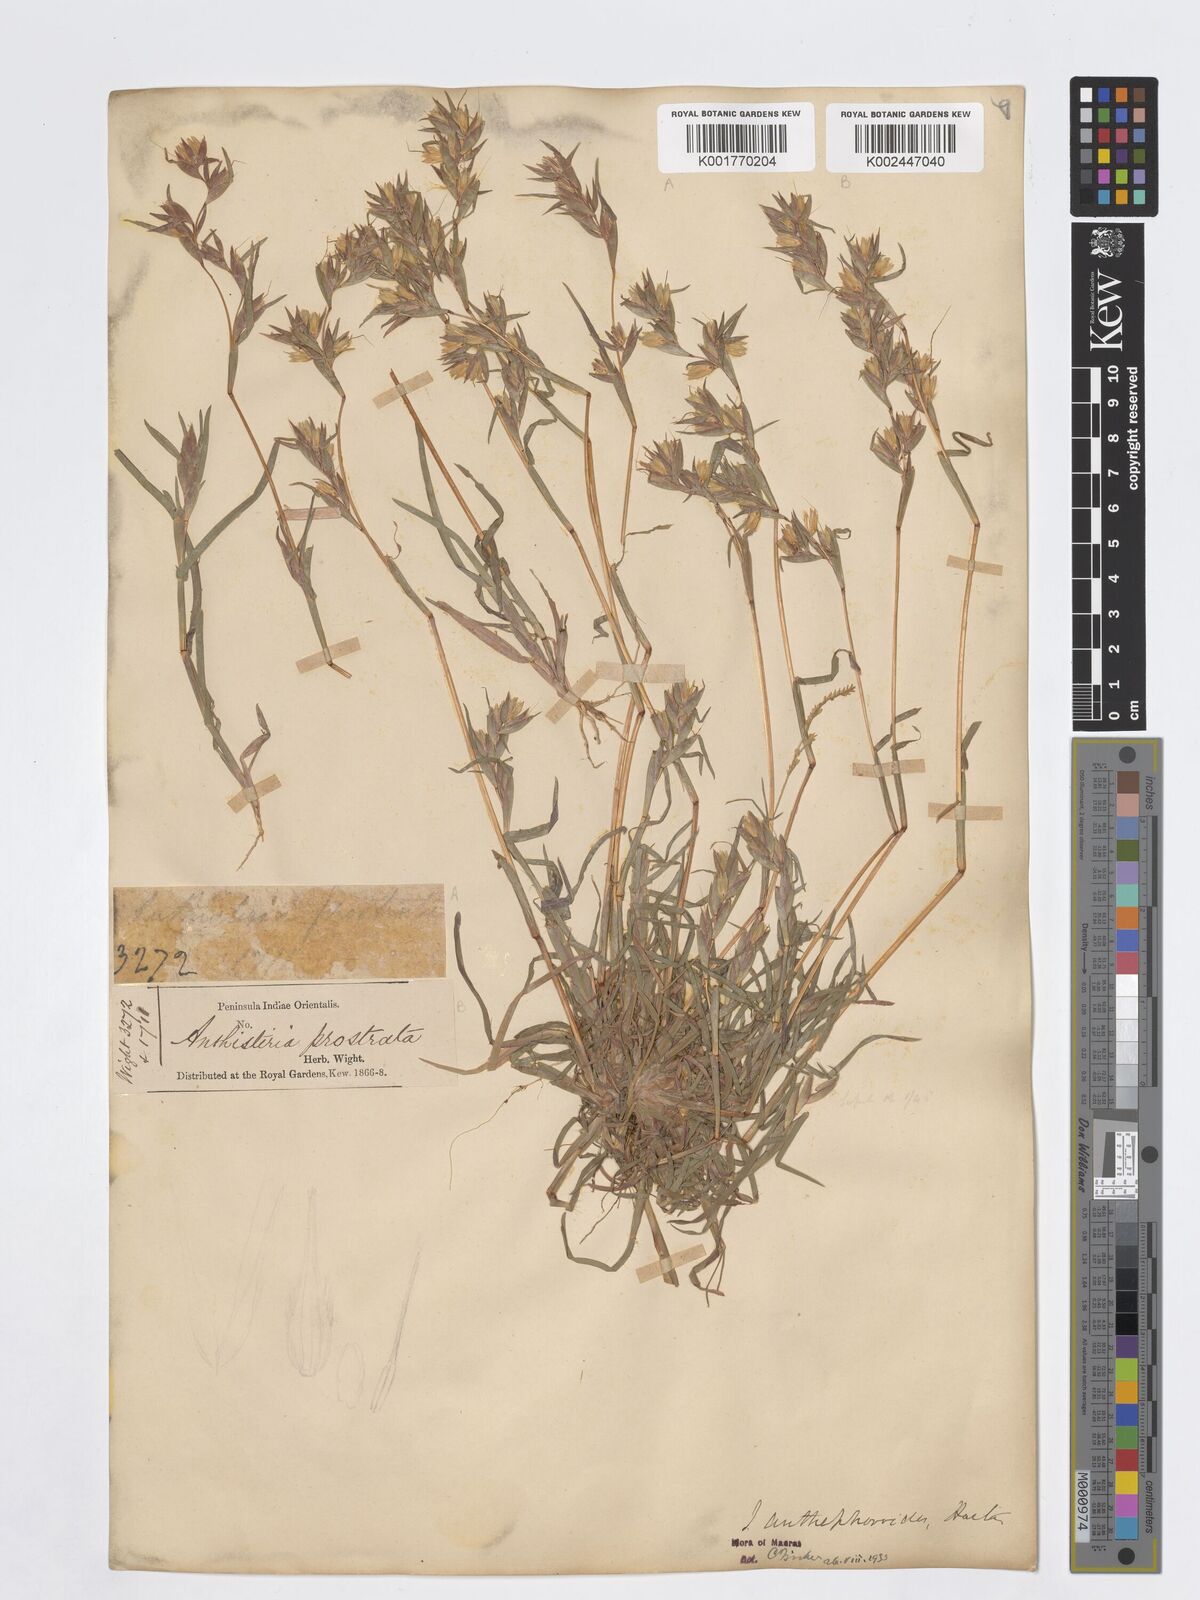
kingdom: Plantae
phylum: Tracheophyta
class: Liliopsida
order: Poales
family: Poaceae
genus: Iseilema
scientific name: Iseilema anthephoroides
